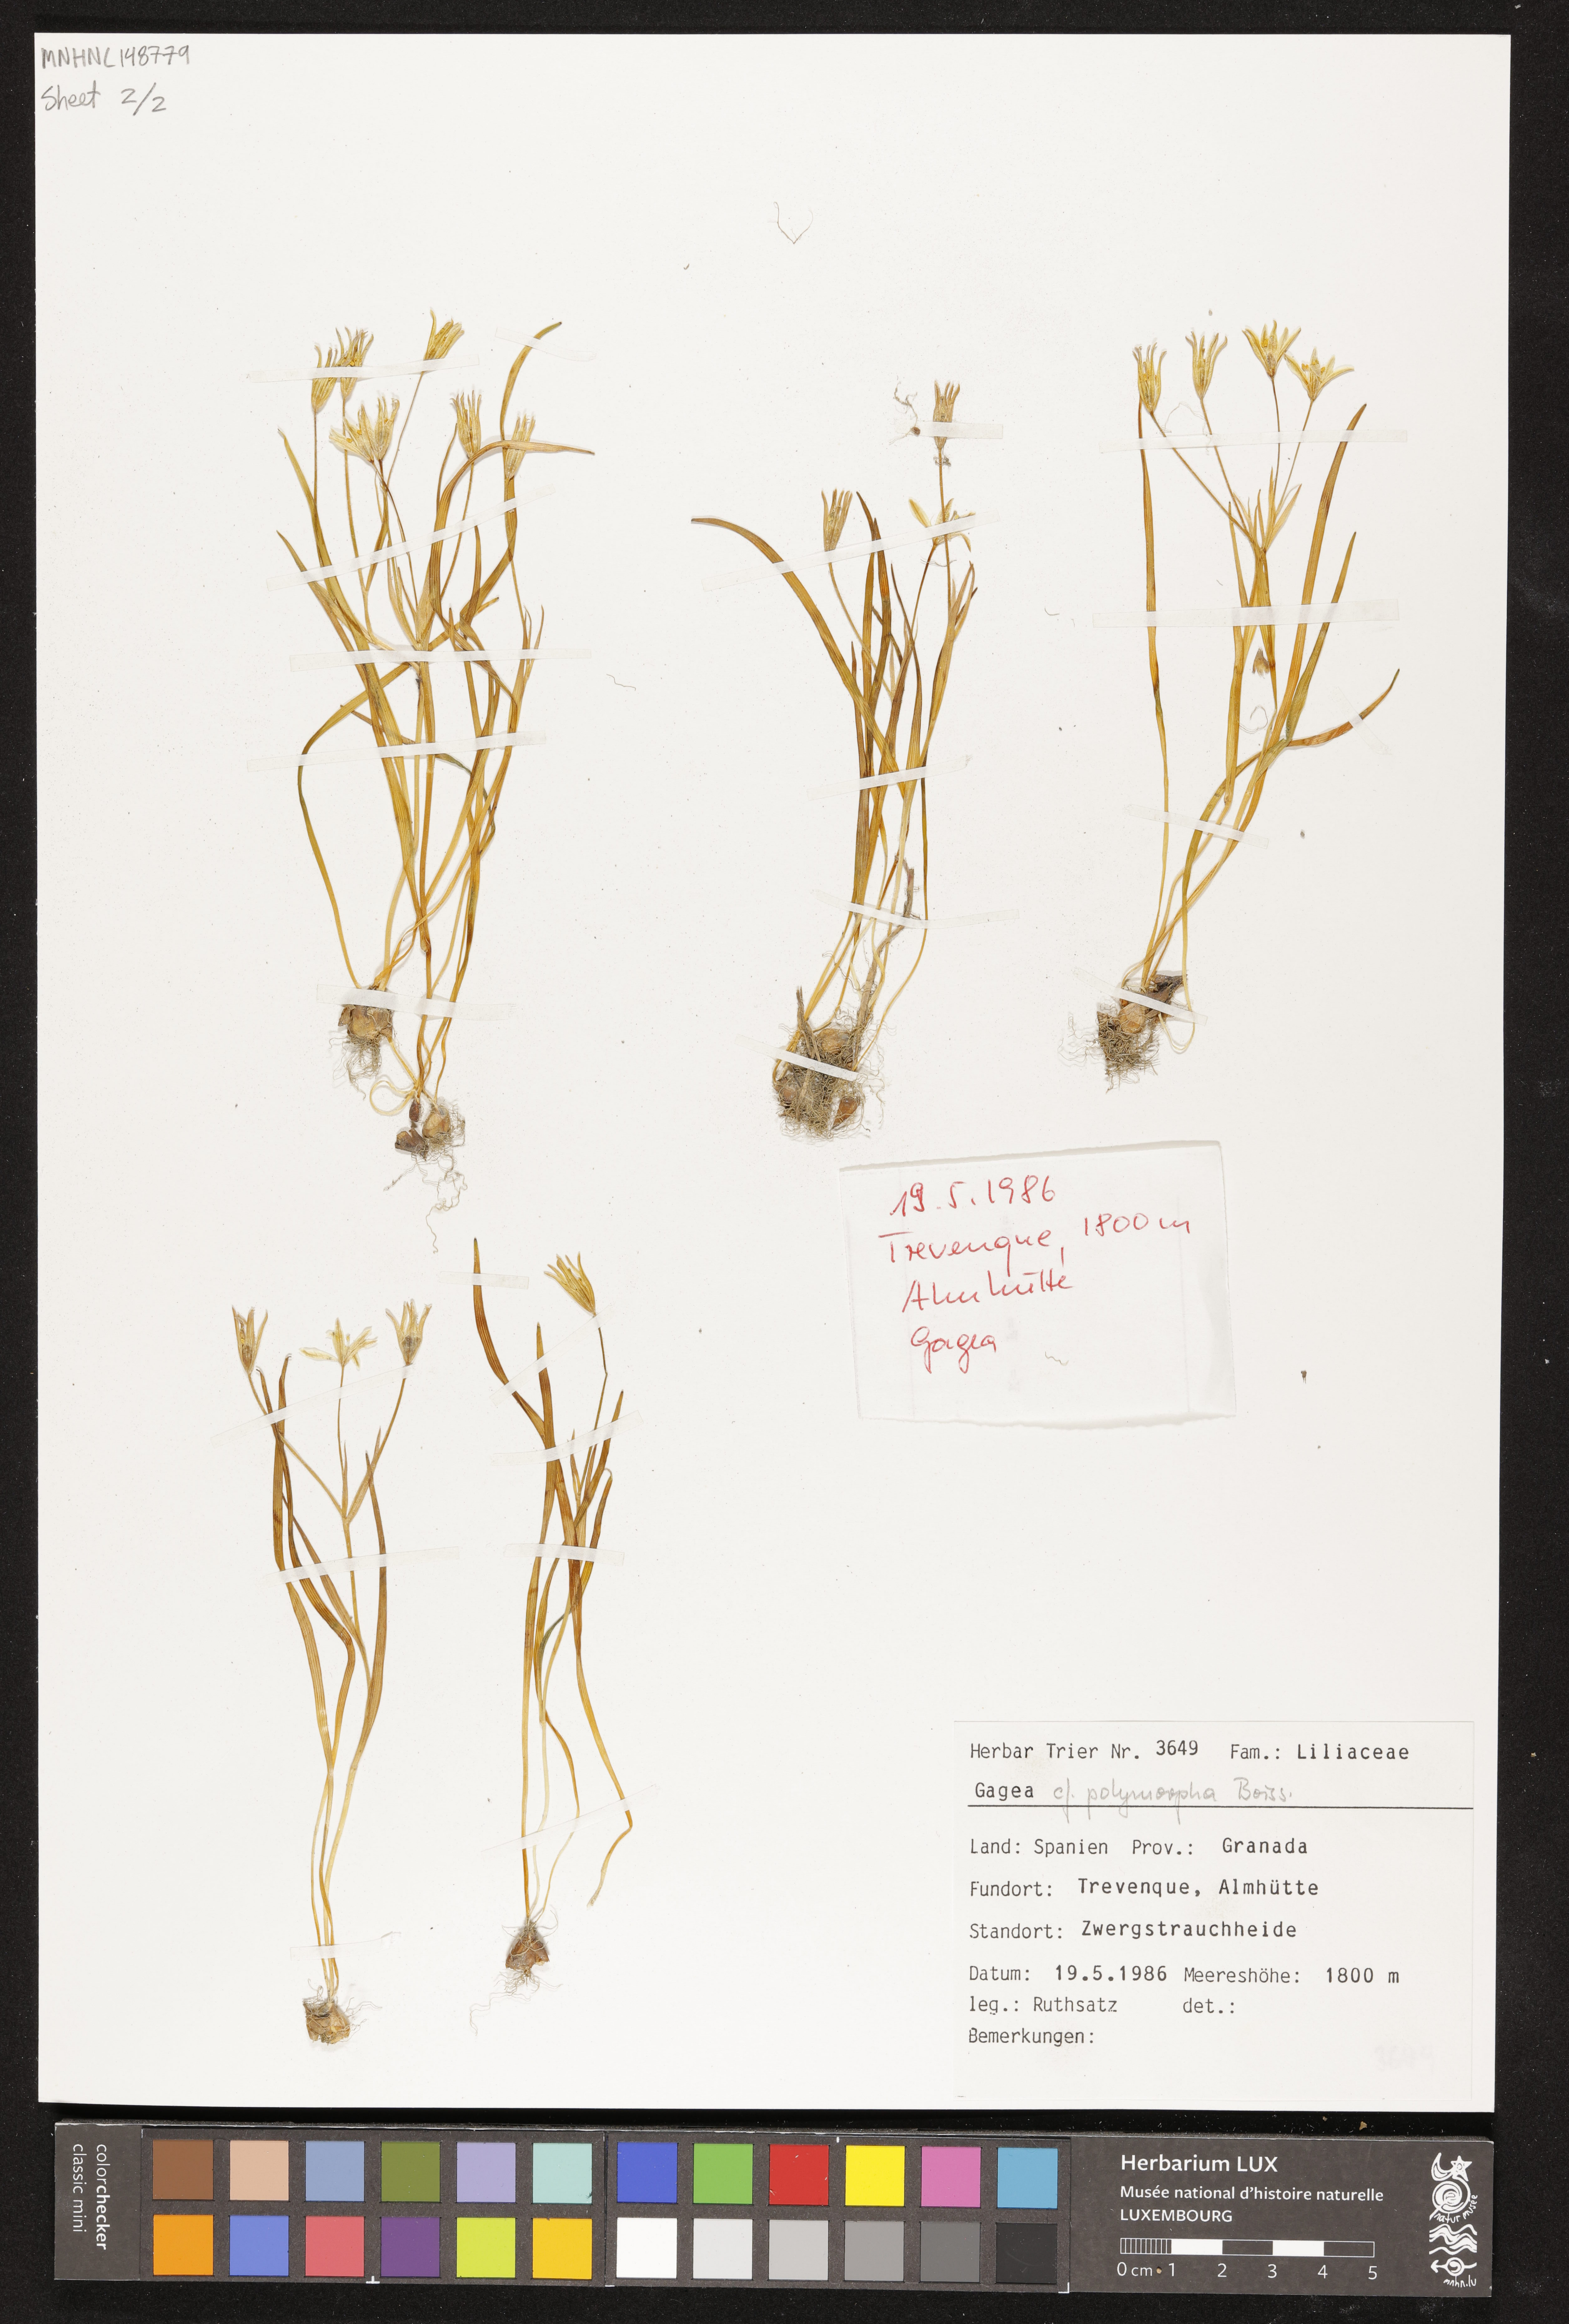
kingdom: Plantae
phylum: Tracheophyta
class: Liliopsida
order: Liliales
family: Liliaceae
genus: Gagea
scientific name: Gagea polymorpha
